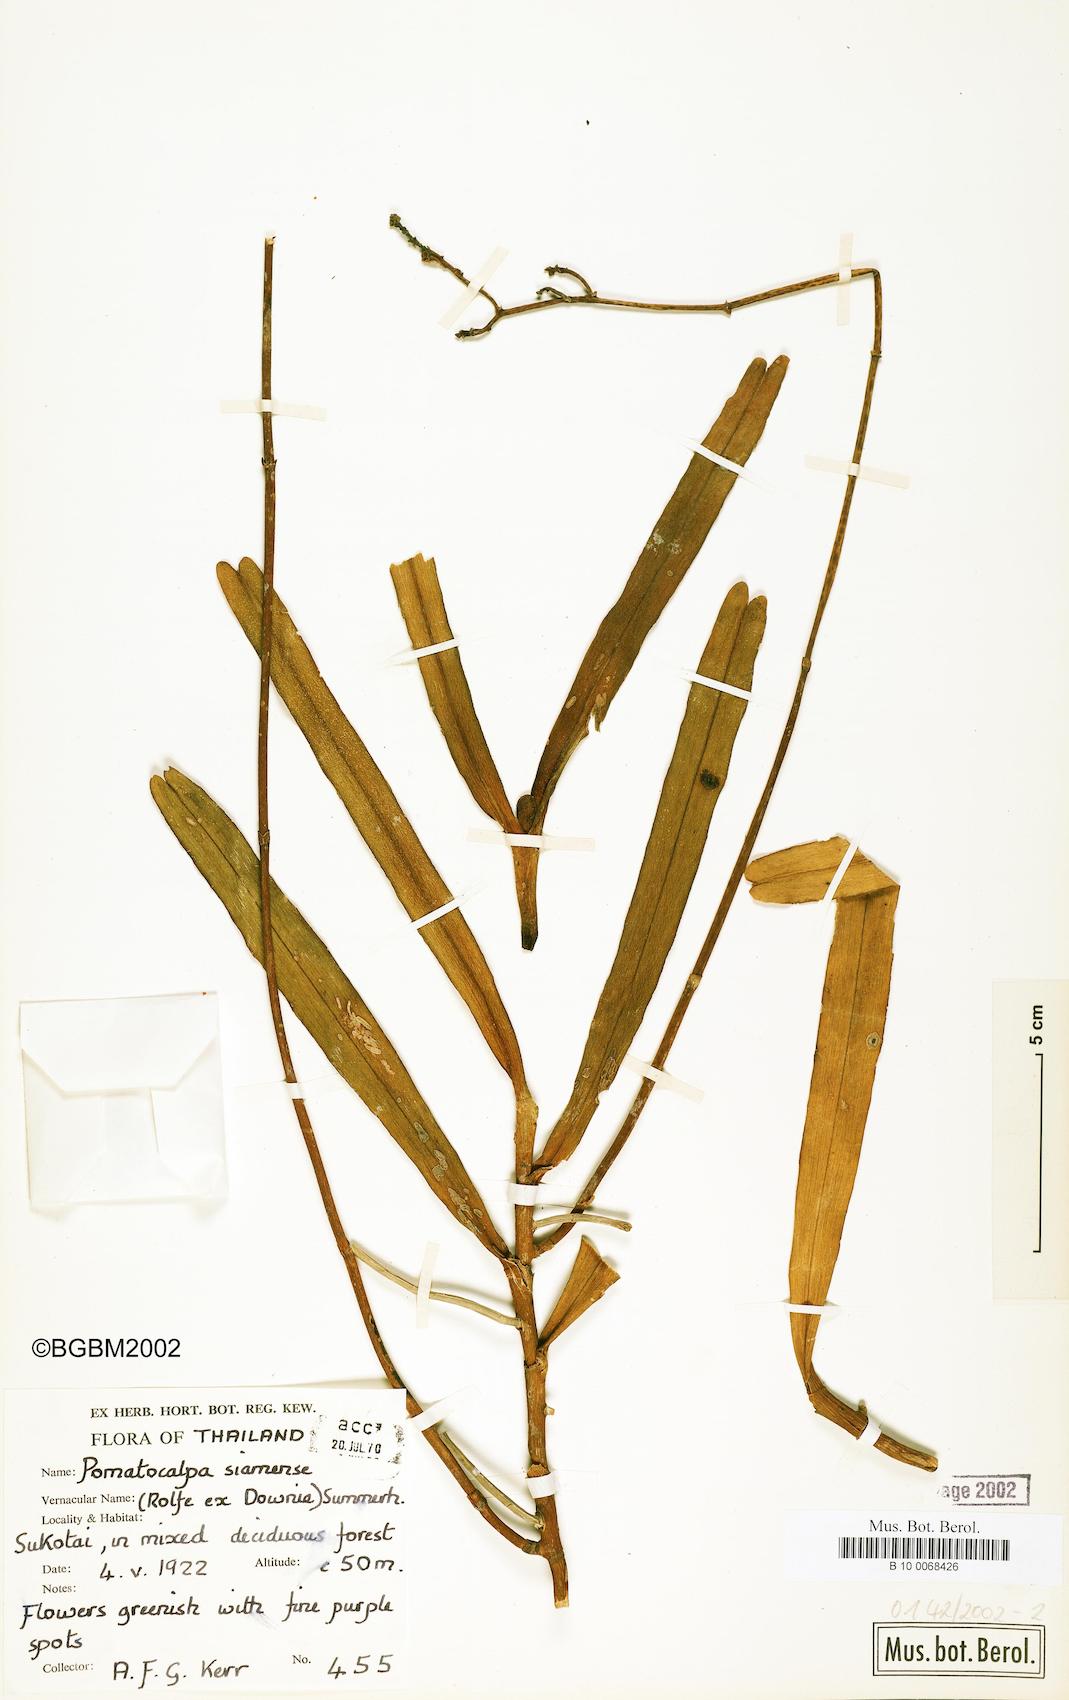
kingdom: Plantae
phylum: Tracheophyta
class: Liliopsida
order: Asparagales
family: Orchidaceae
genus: Pomatocalpa
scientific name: Pomatocalpa maculosum
